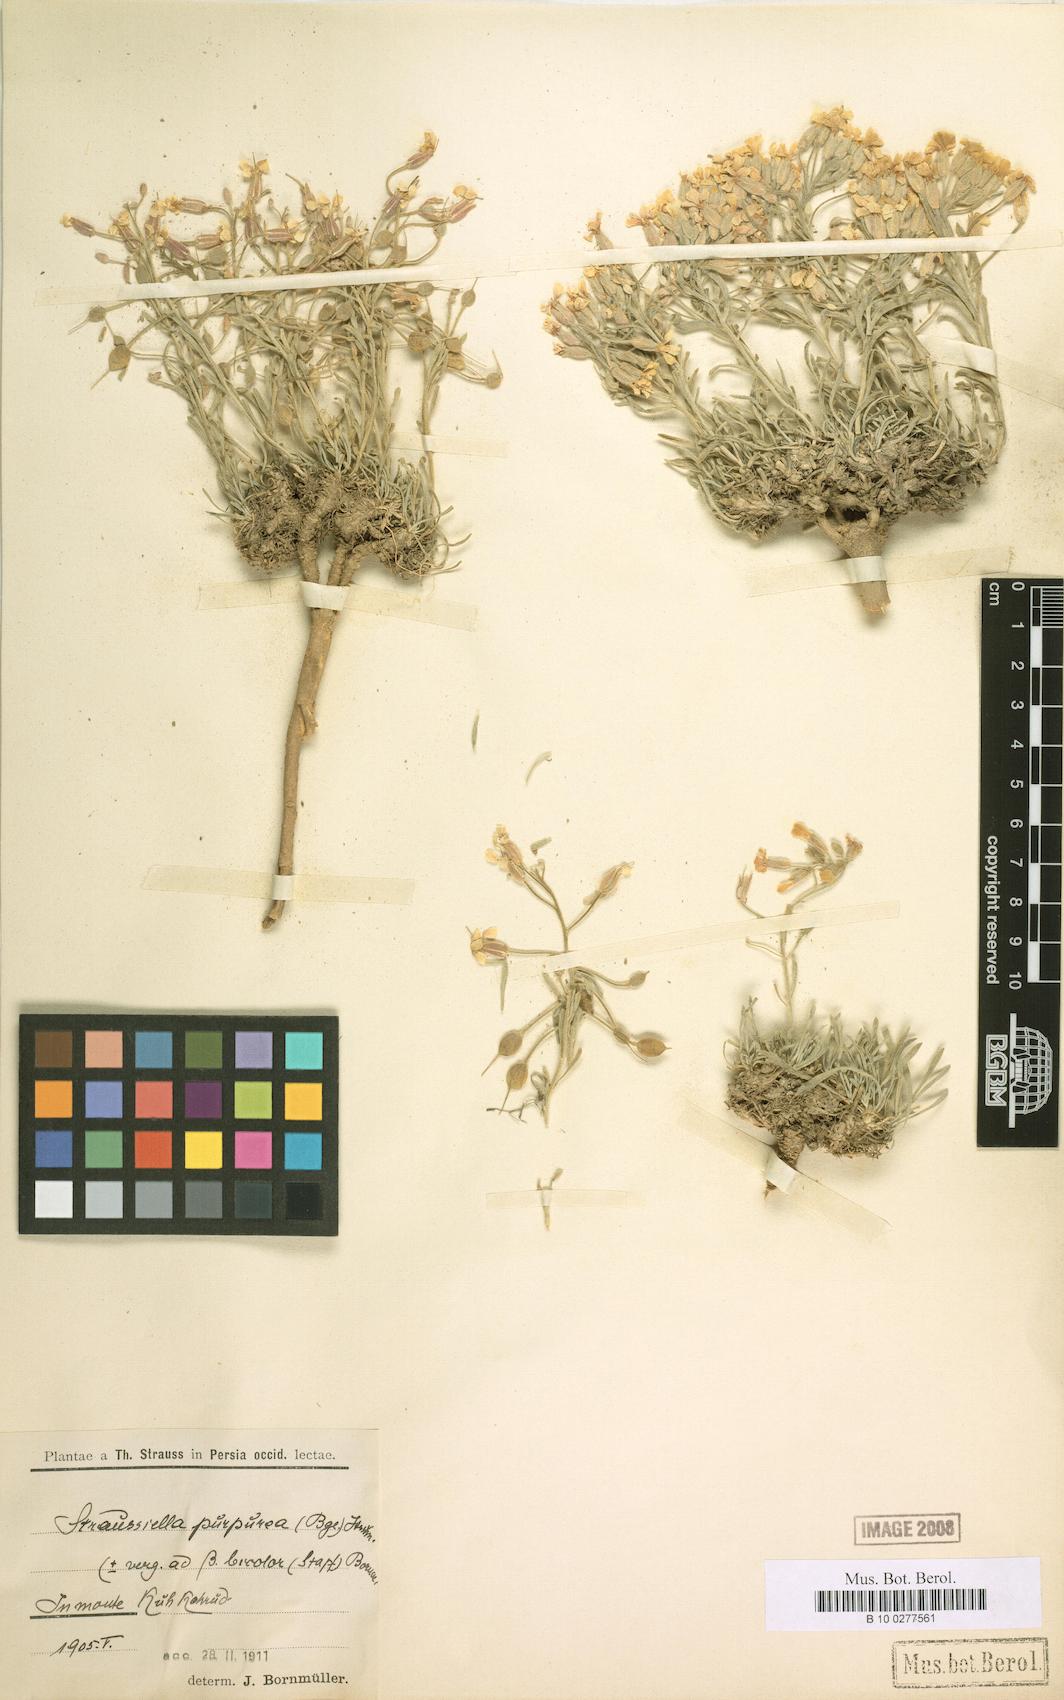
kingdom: Plantae
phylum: Tracheophyta
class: Magnoliopsida
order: Brassicales
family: Brassicaceae
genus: Clastopus
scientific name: Clastopus purpureus
